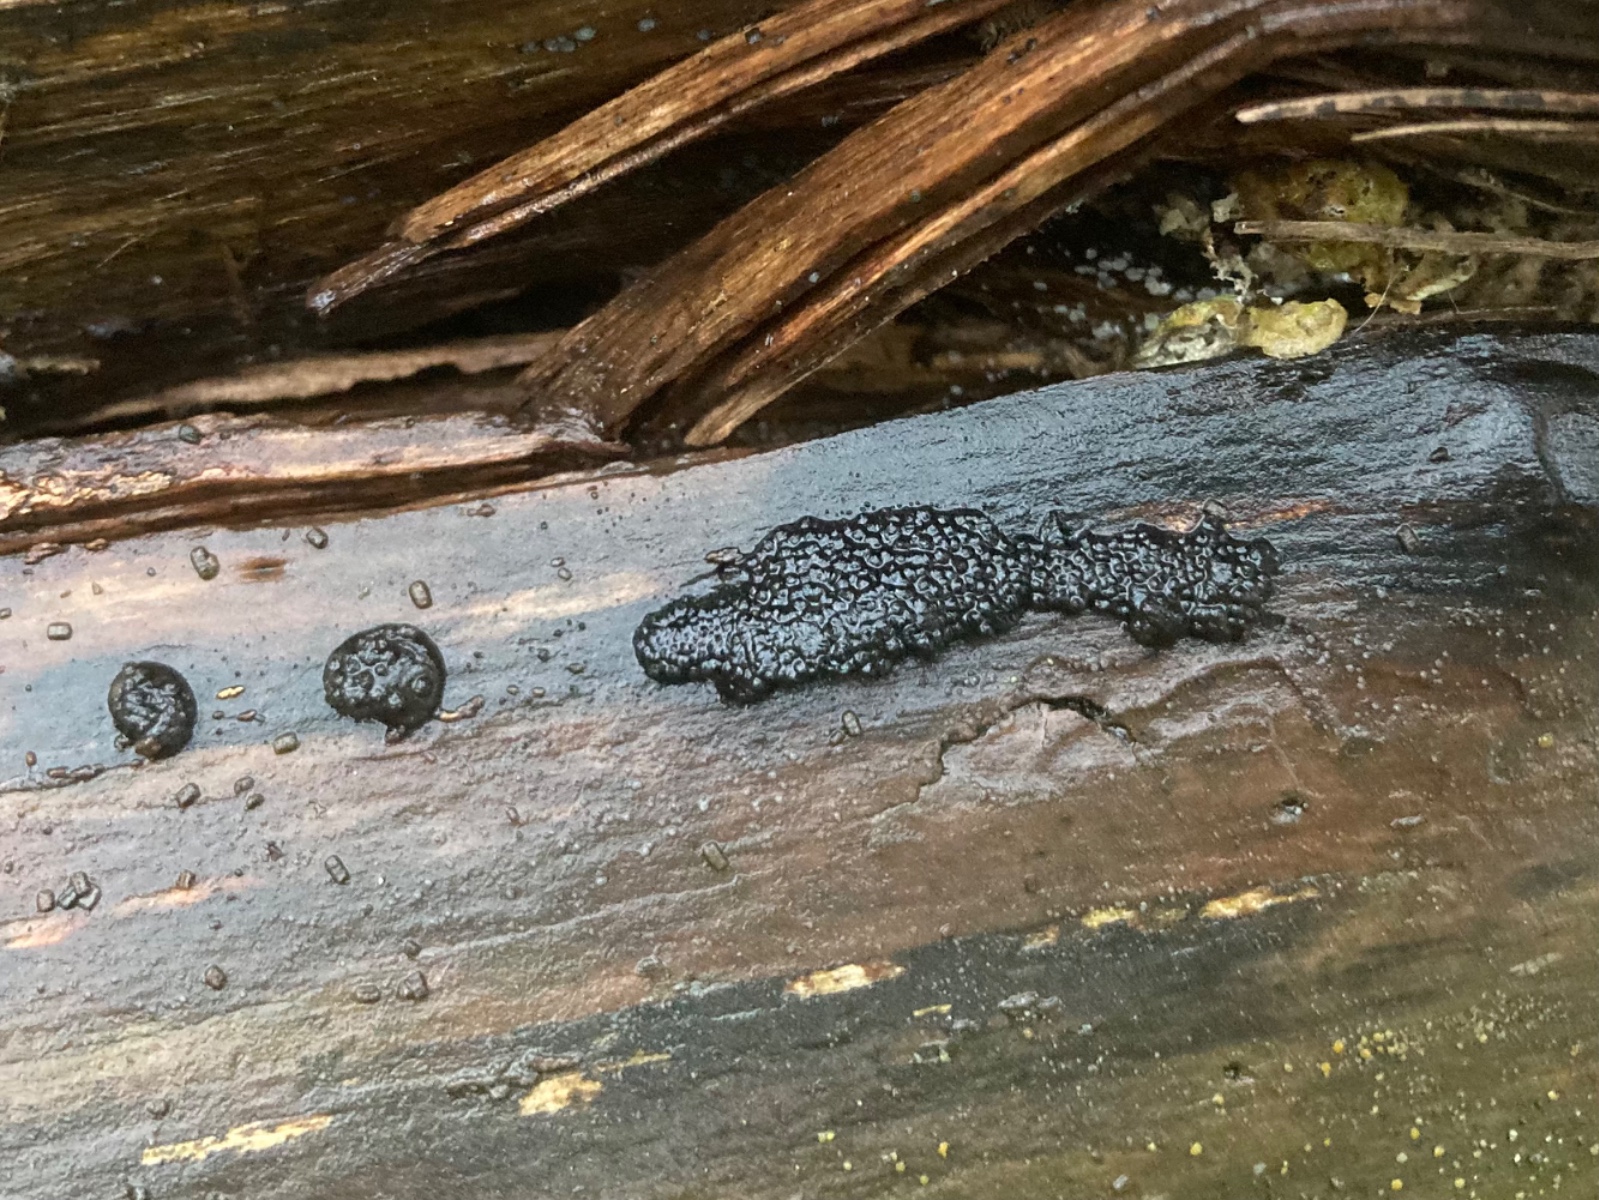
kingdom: Fungi
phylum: Ascomycota
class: Sordariomycetes
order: Xylariales
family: Hypoxylaceae
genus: Jackrogersella
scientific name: Jackrogersella multiformis
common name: foranderlig kulbær
